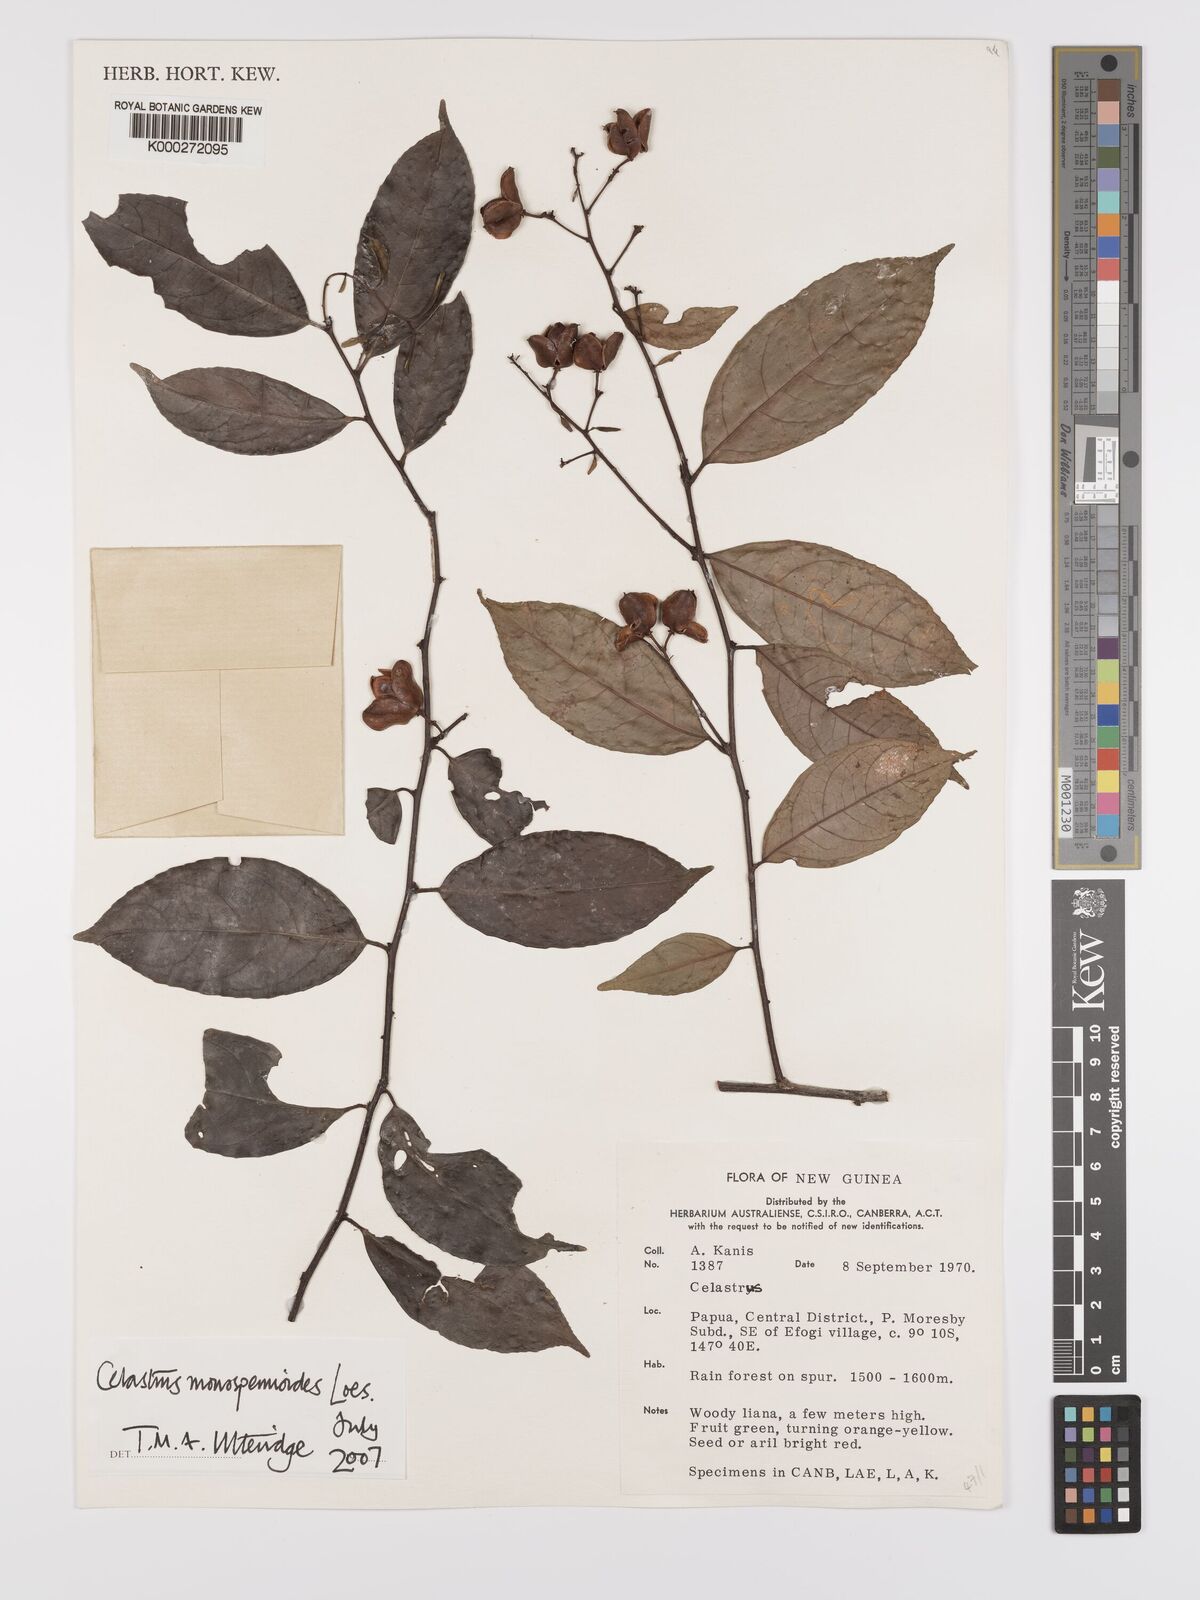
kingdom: Plantae
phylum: Tracheophyta
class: Magnoliopsida
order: Celastrales
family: Celastraceae
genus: Celastrus
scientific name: Celastrus monospermoides
